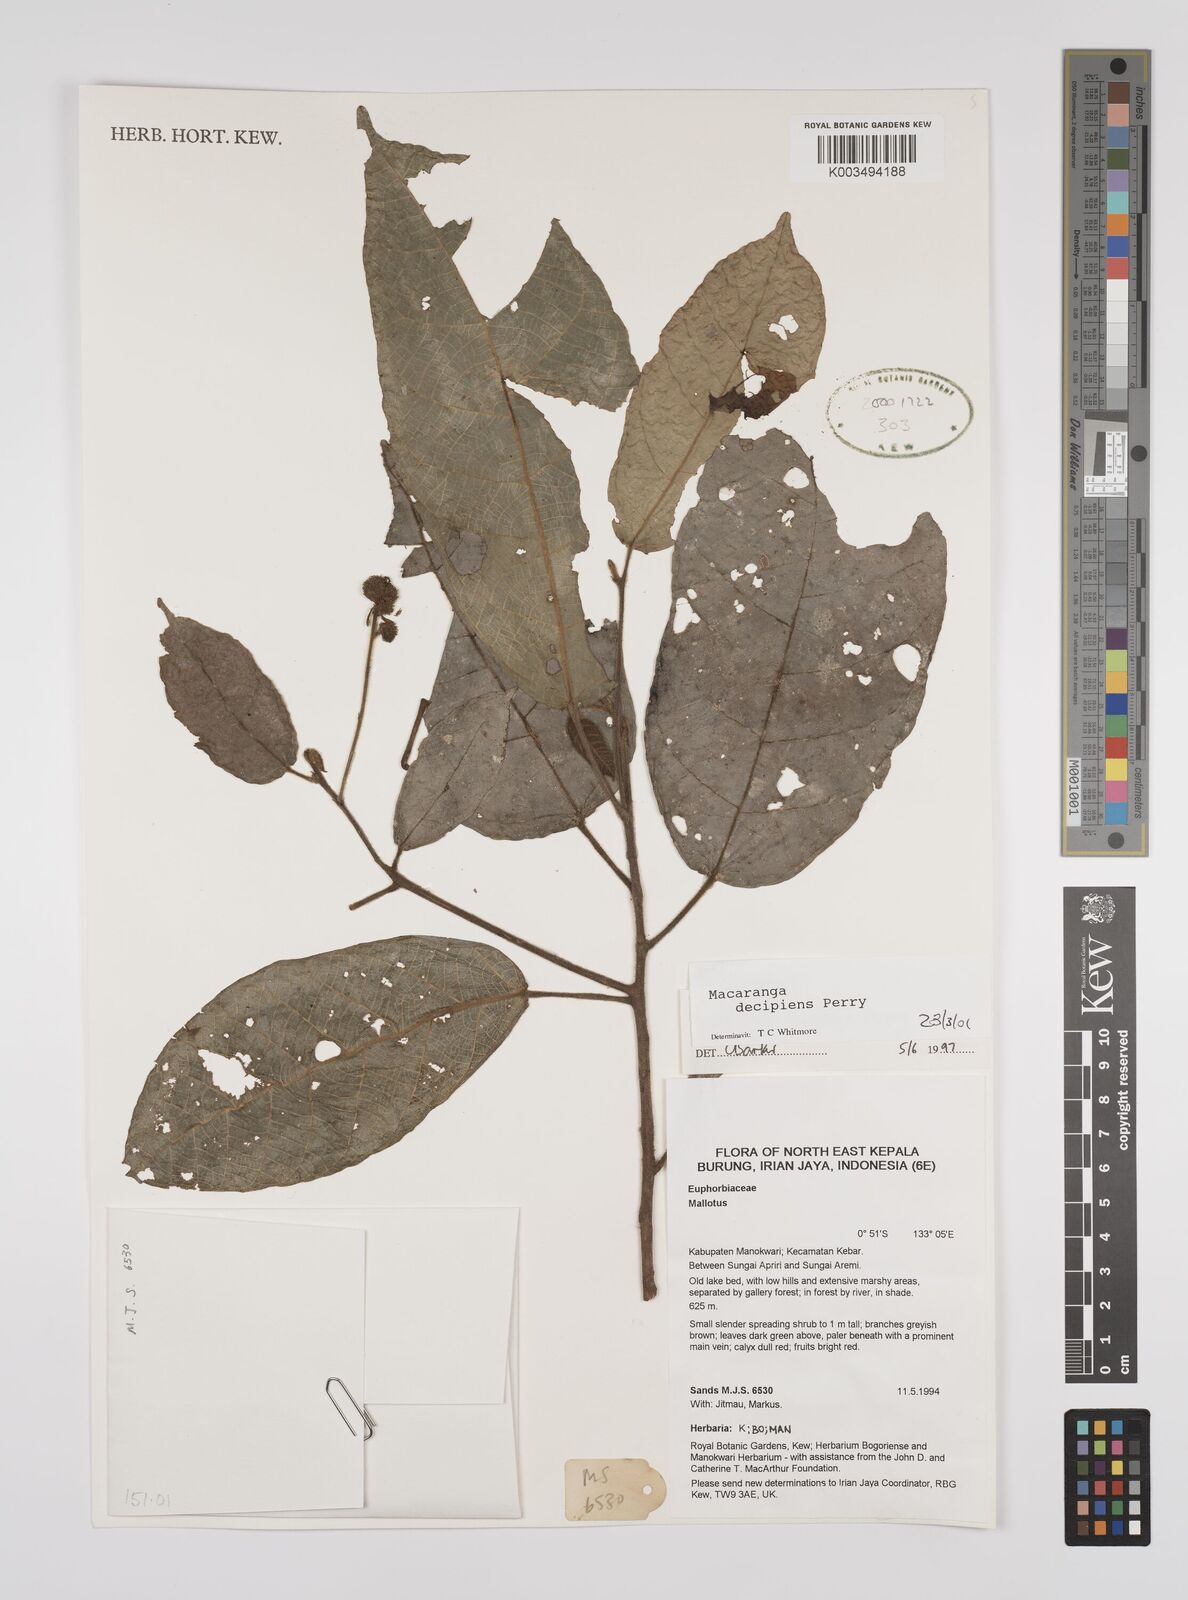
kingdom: Plantae
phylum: Tracheophyta
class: Magnoliopsida
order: Malpighiales
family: Euphorbiaceae
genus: Macaranga
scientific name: Macaranga decipiens
